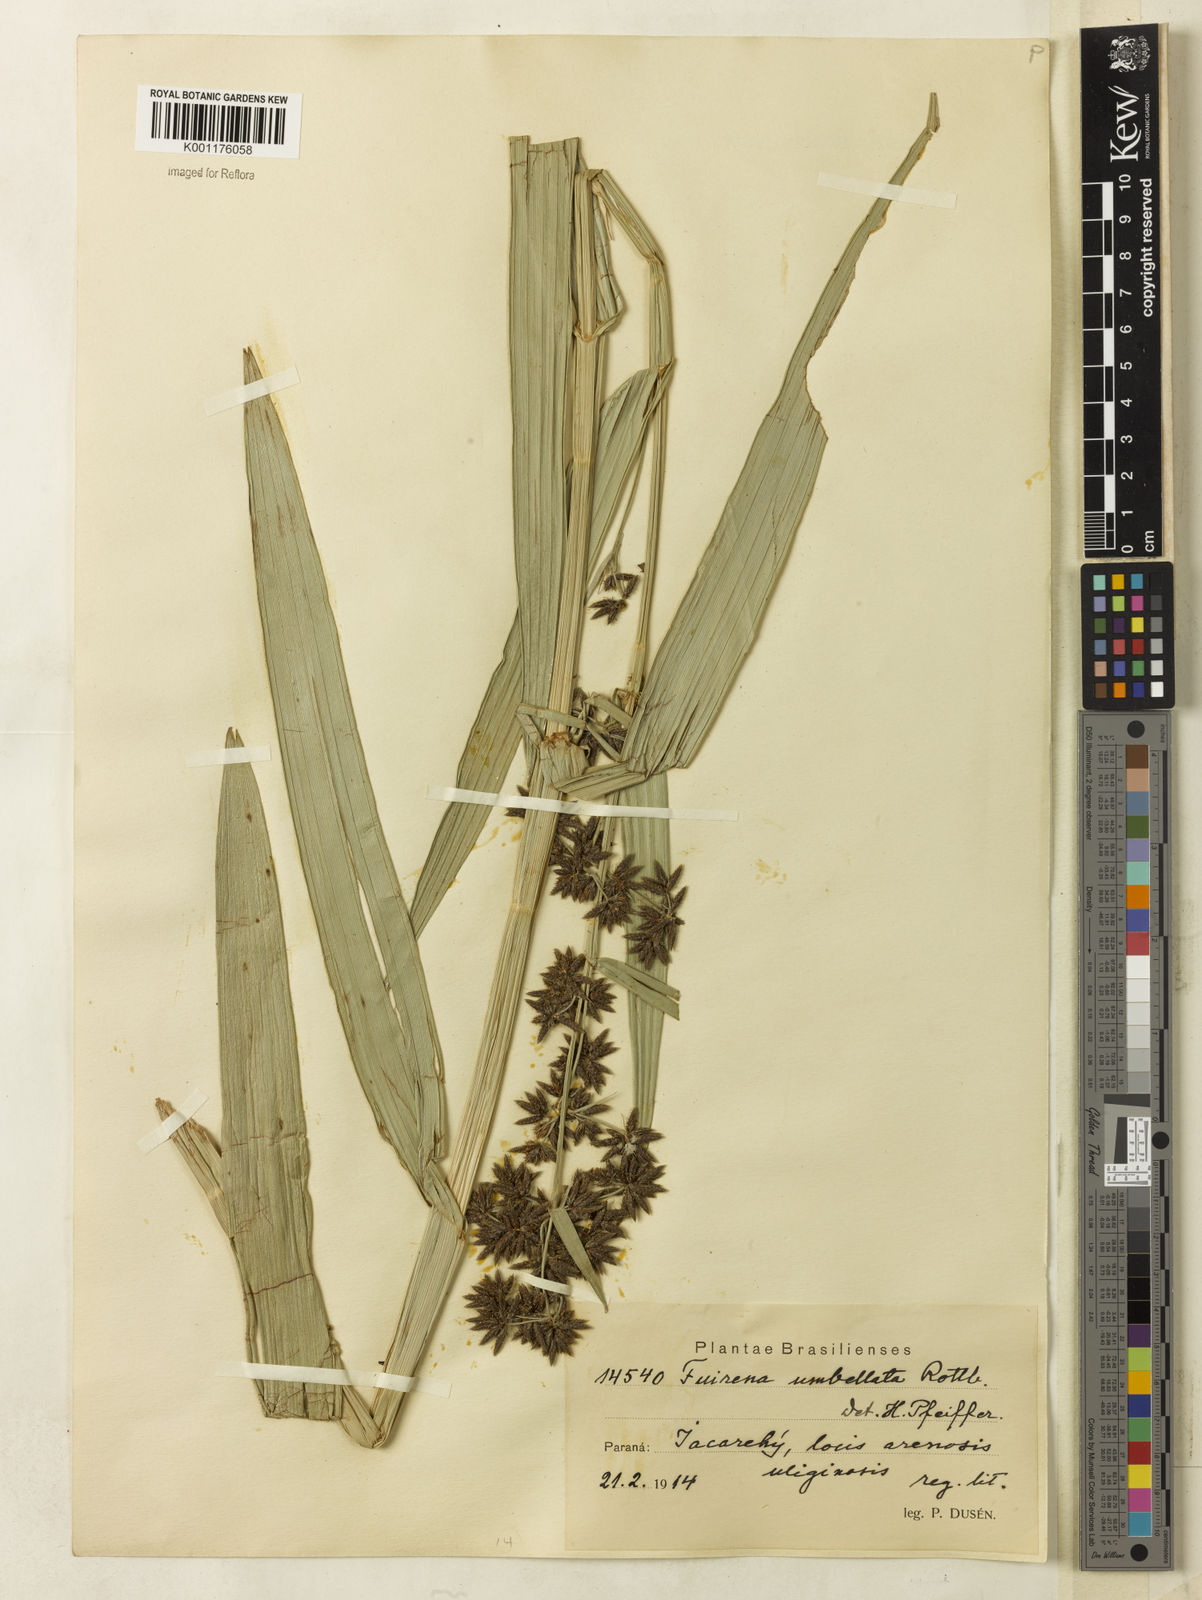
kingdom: Plantae
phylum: Tracheophyta
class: Liliopsida
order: Poales
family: Cyperaceae
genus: Fuirena
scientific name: Fuirena umbellata
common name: Yefen
